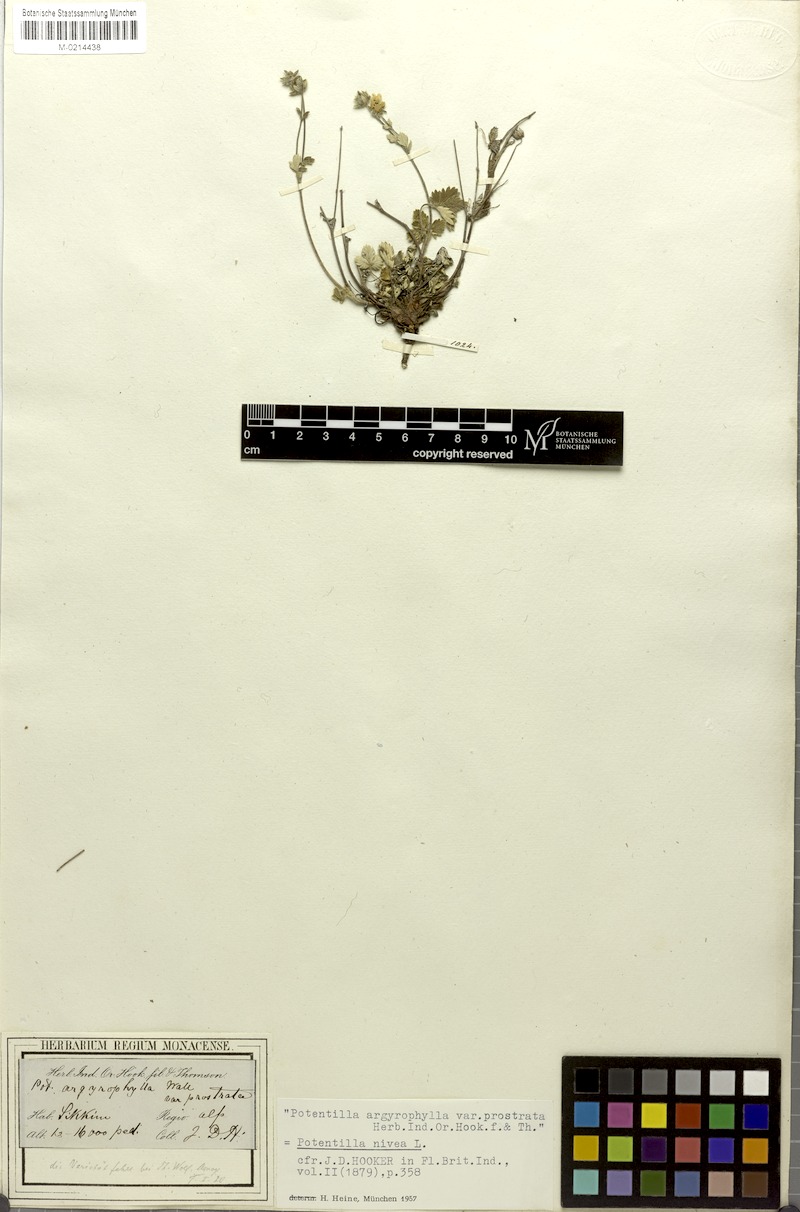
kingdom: Plantae
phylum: Tracheophyta
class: Magnoliopsida
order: Rosales
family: Rosaceae
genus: Potentilla
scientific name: Potentilla sinonivea
